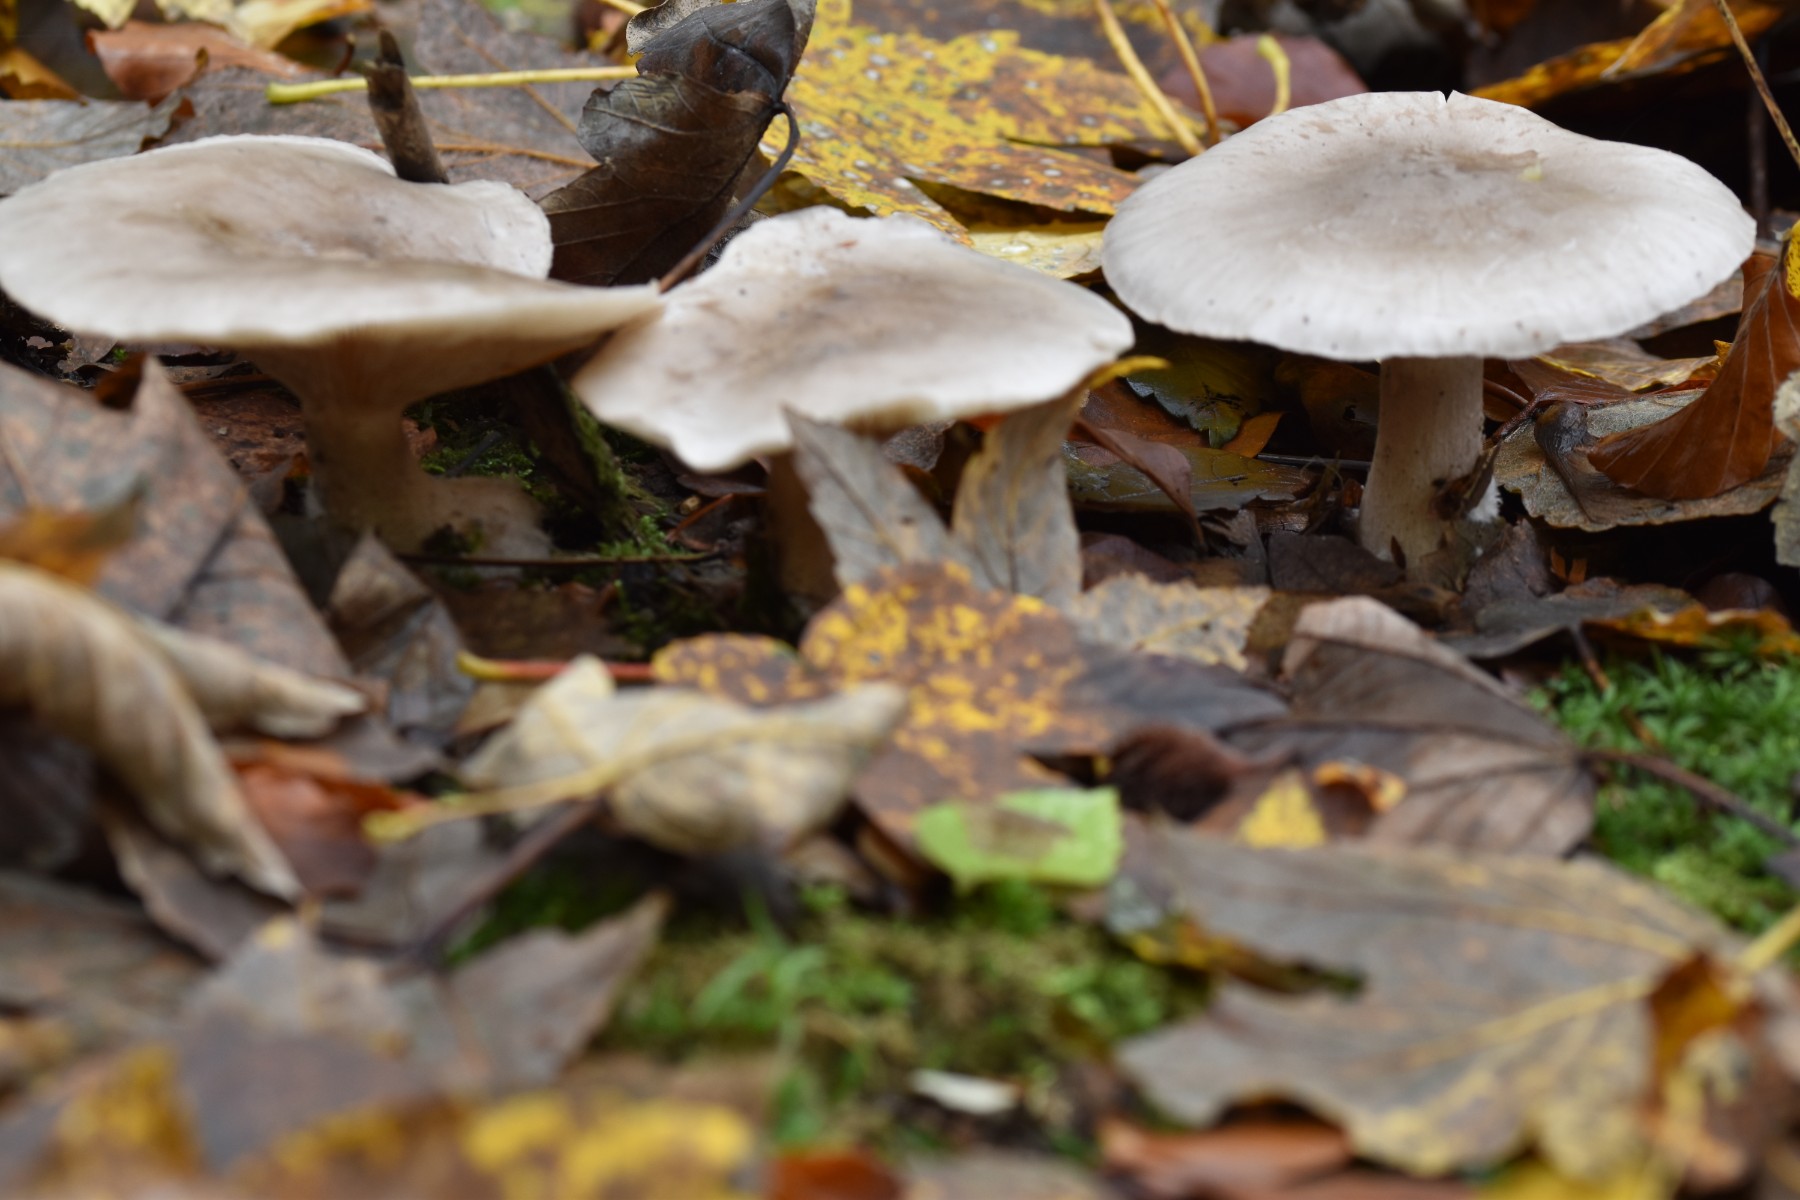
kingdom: Fungi
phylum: Basidiomycota
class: Agaricomycetes
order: Agaricales
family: Tricholomataceae
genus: Clitocybe
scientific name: Clitocybe nebularis
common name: tåge-tragthat
